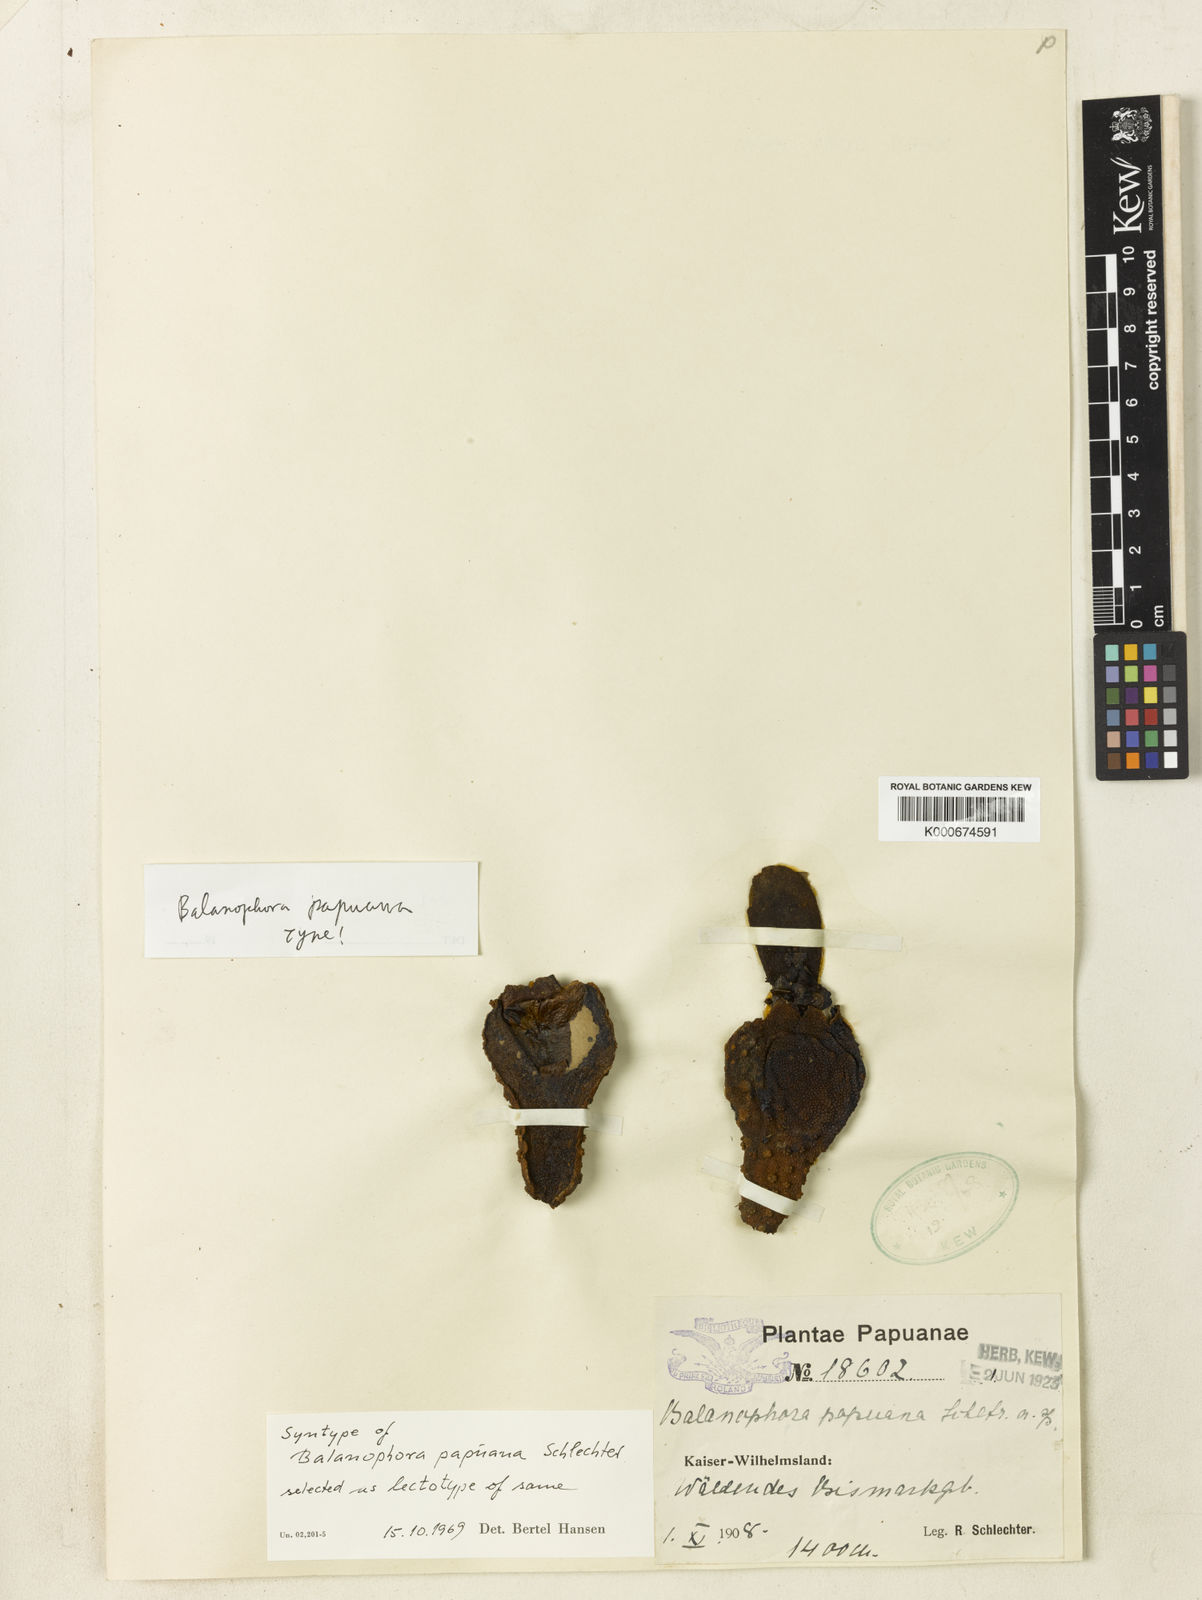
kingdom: Plantae
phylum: Tracheophyta
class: Magnoliopsida
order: Santalales
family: Balanophoraceae
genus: Balanophora
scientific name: Balanophora papuana
